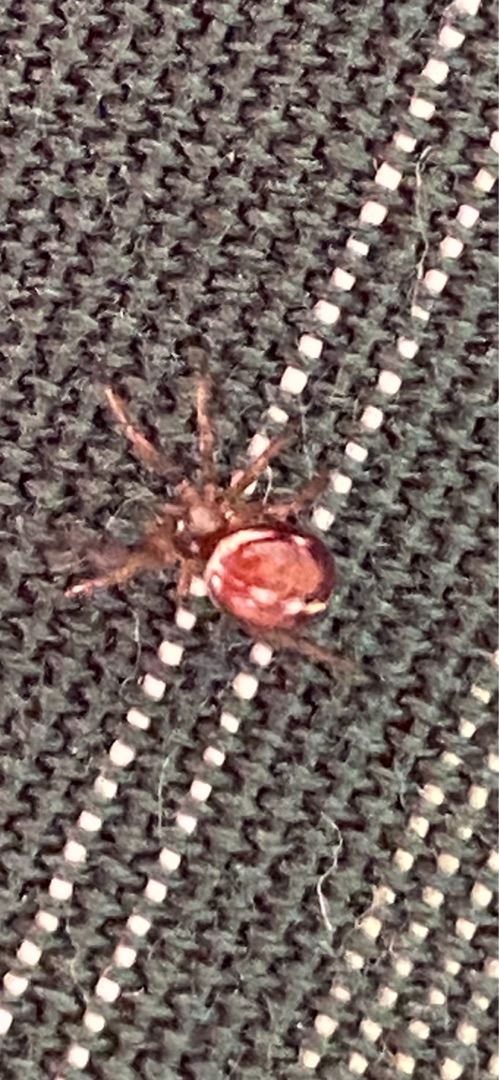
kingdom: Animalia
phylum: Arthropoda
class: Arachnida
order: Araneae
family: Theridiidae
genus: Steatoda
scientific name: Steatoda bipunctata
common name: Fedtedderkop
